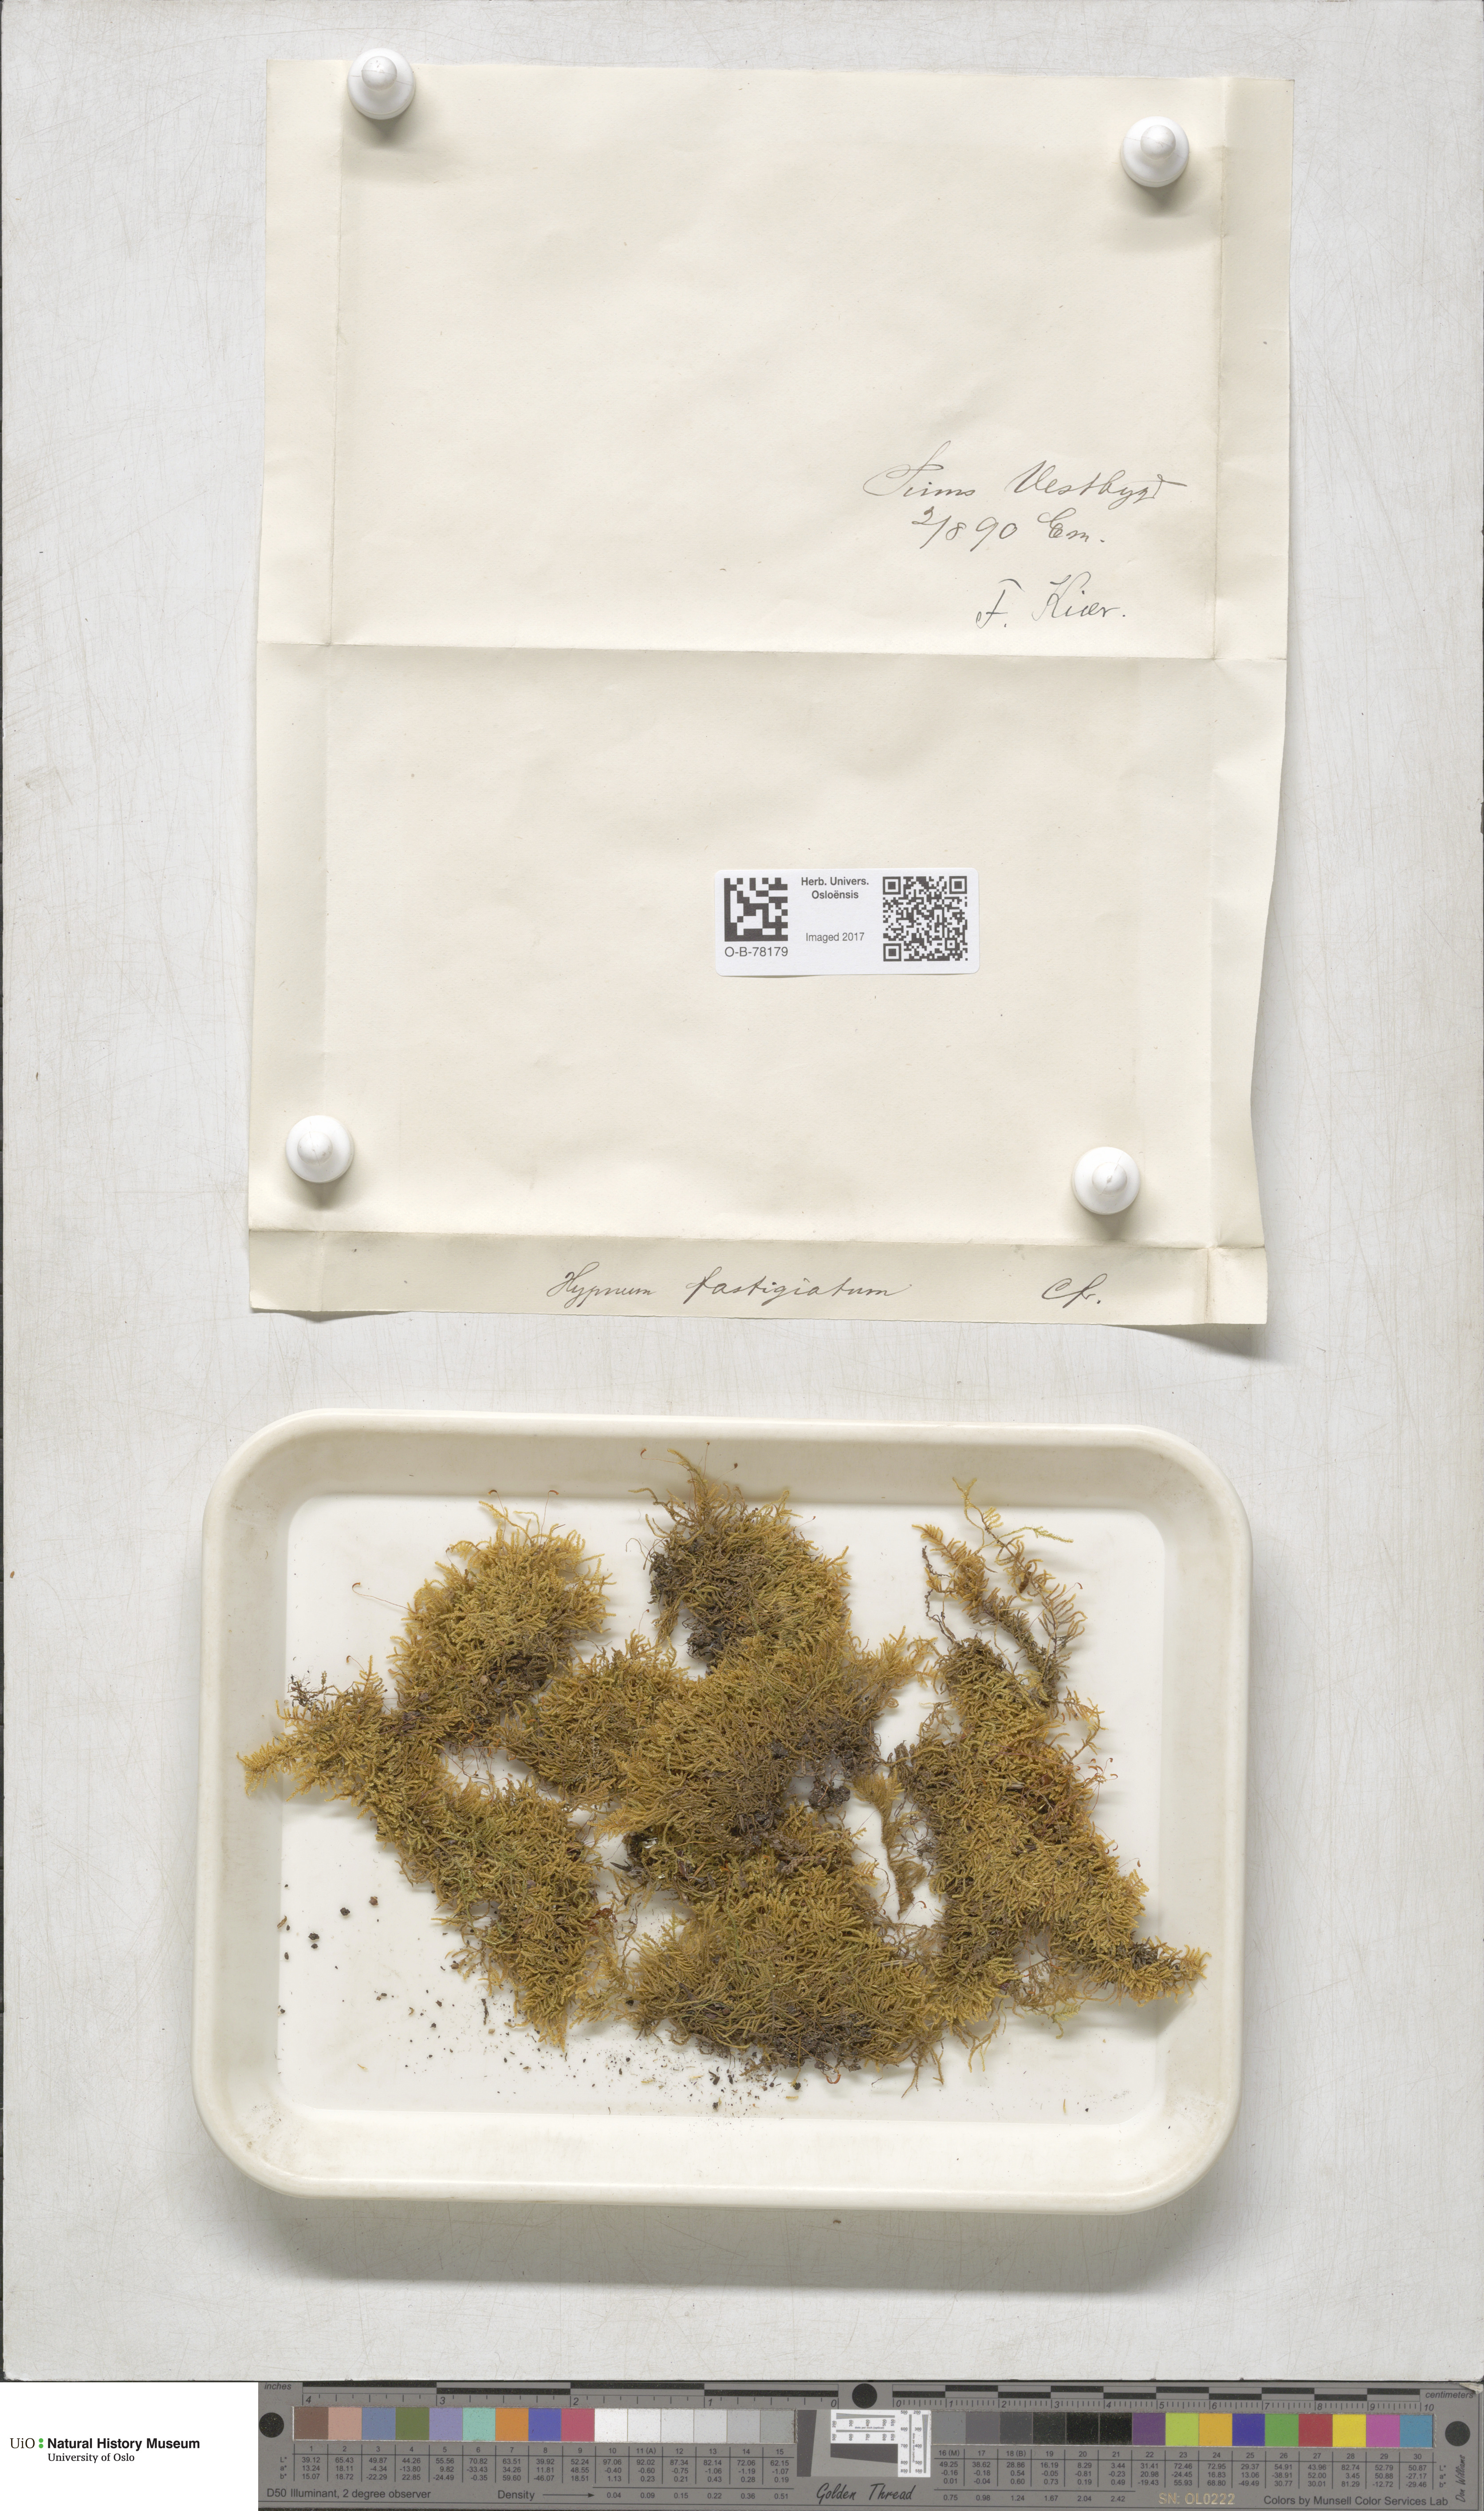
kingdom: Plantae
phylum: Bryophyta
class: Bryopsida
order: Hypnales
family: Amblystegiaceae
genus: Drepanium
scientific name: Drepanium fastigiatum
